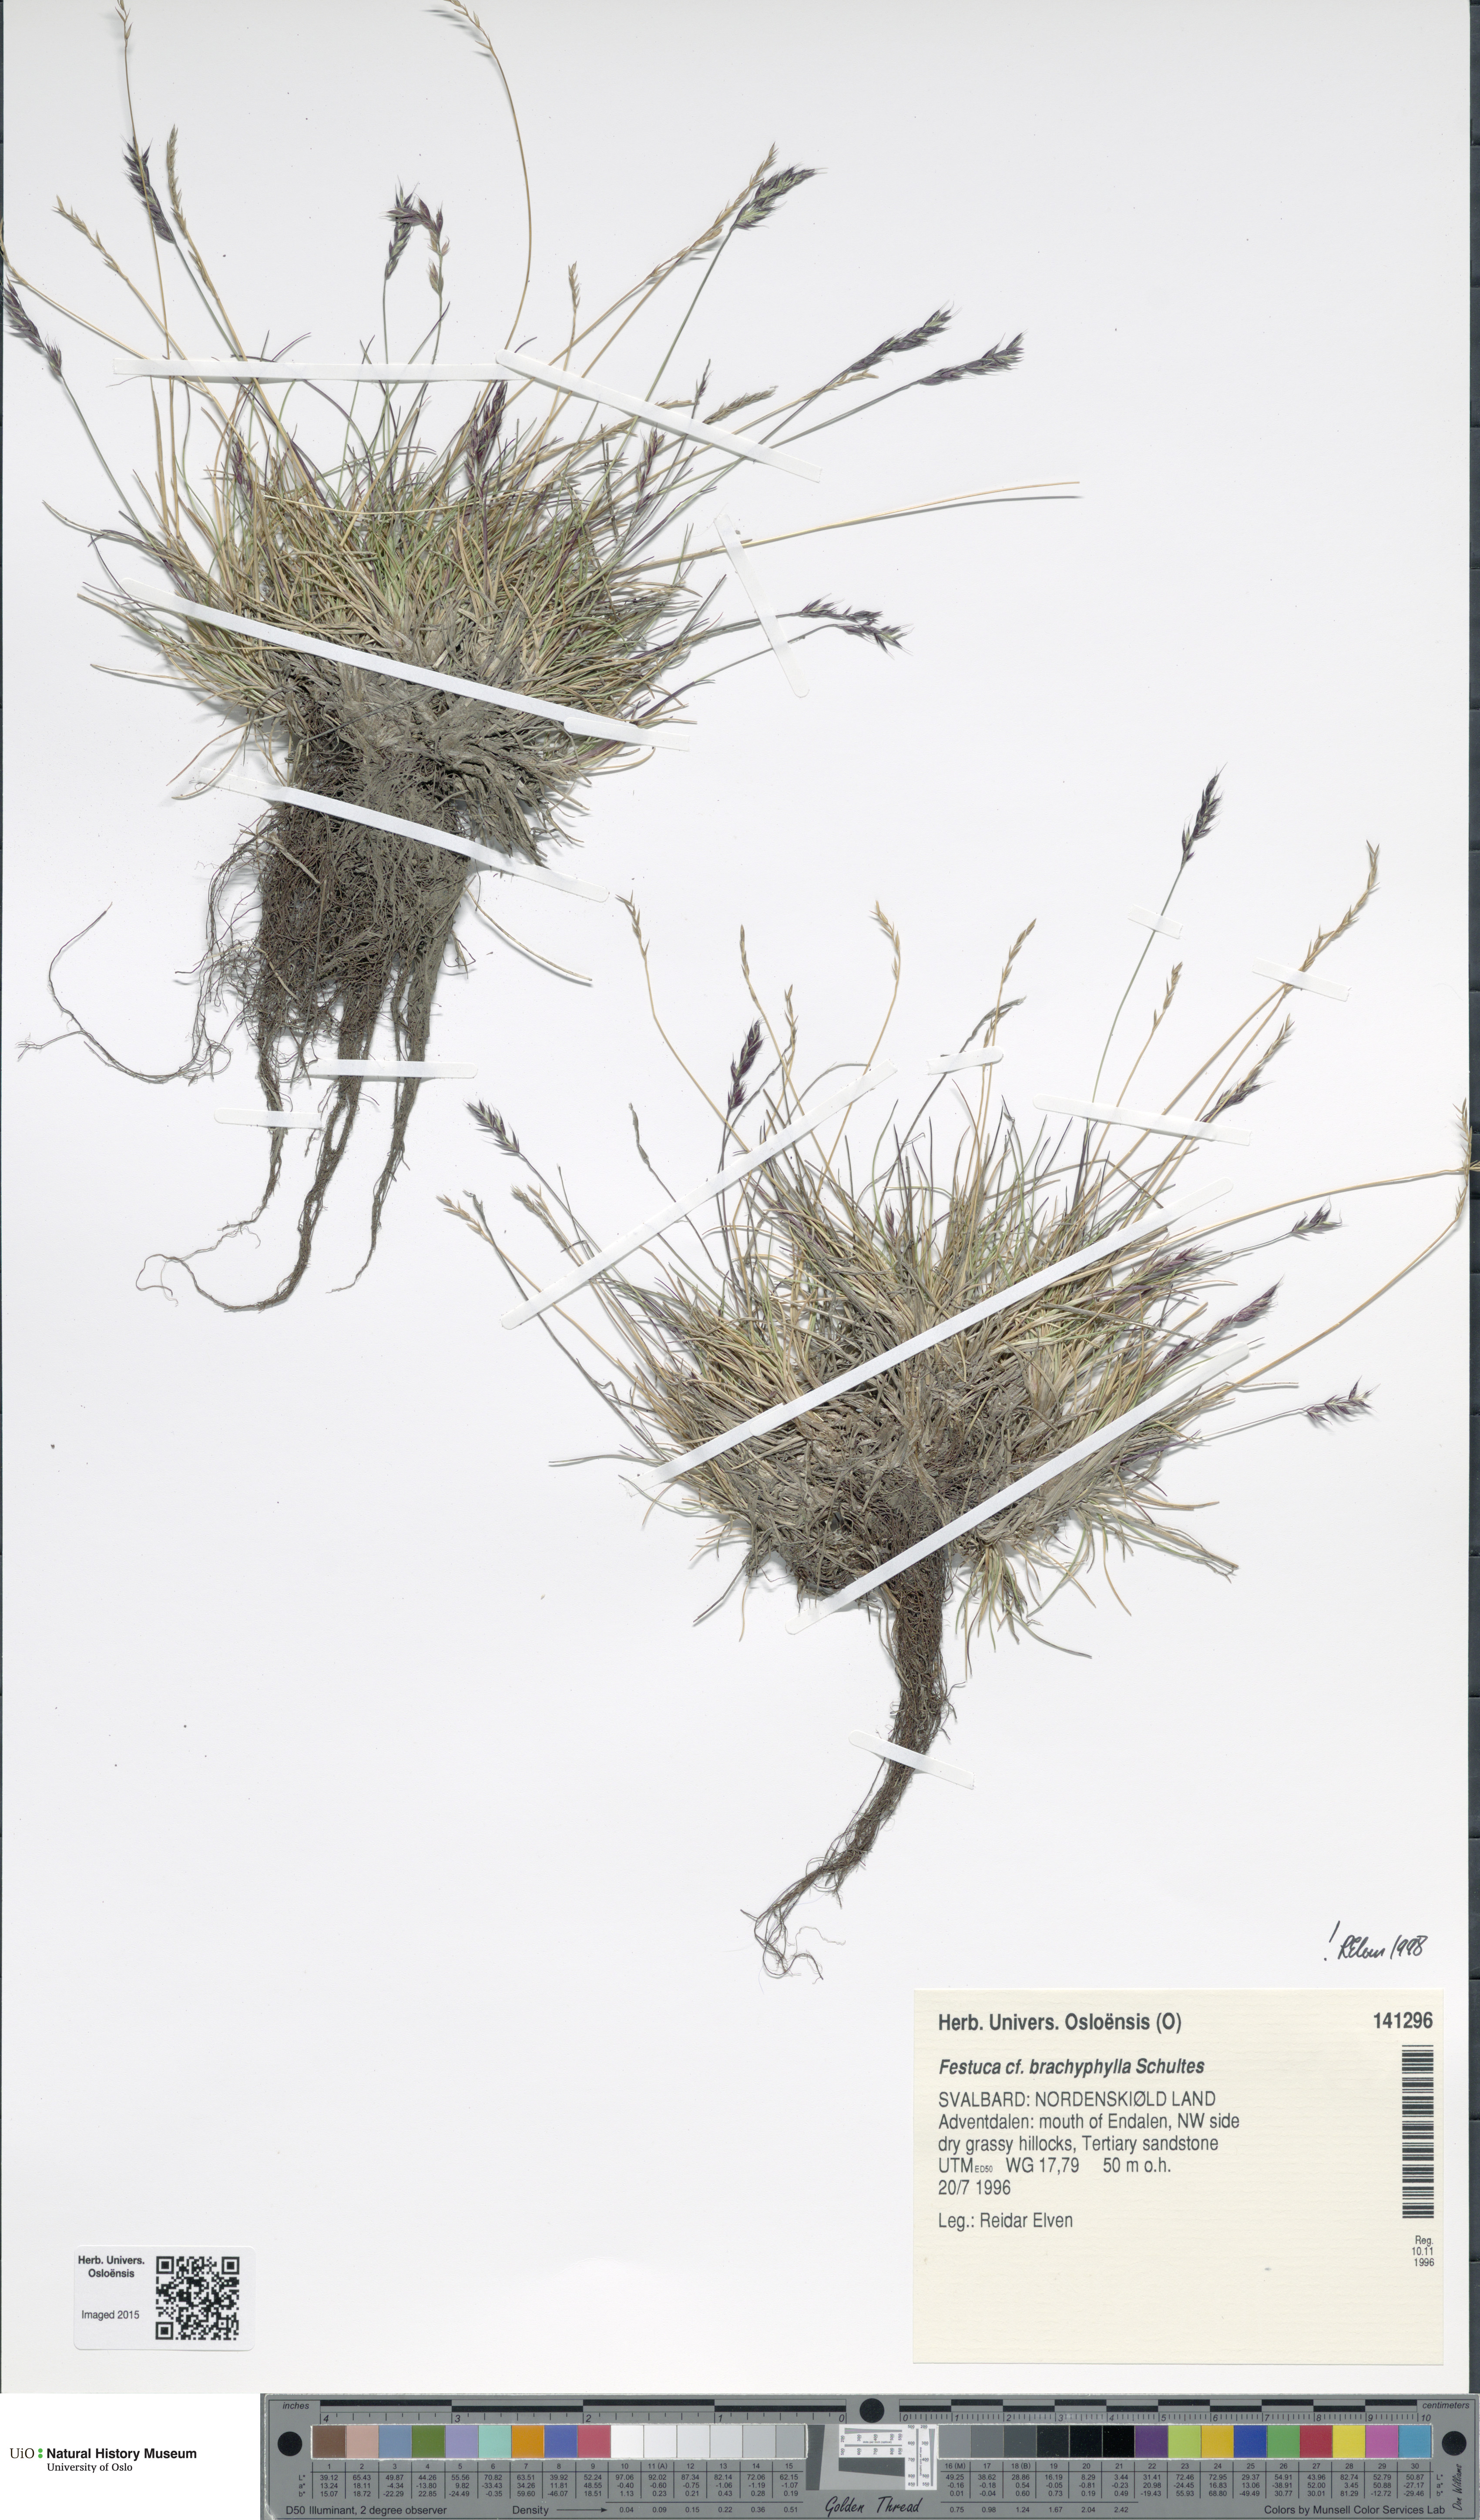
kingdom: Plantae
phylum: Tracheophyta
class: Liliopsida
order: Poales
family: Poaceae
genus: Festuca
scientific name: Festuca brachyphylla
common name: Alpine fescue
